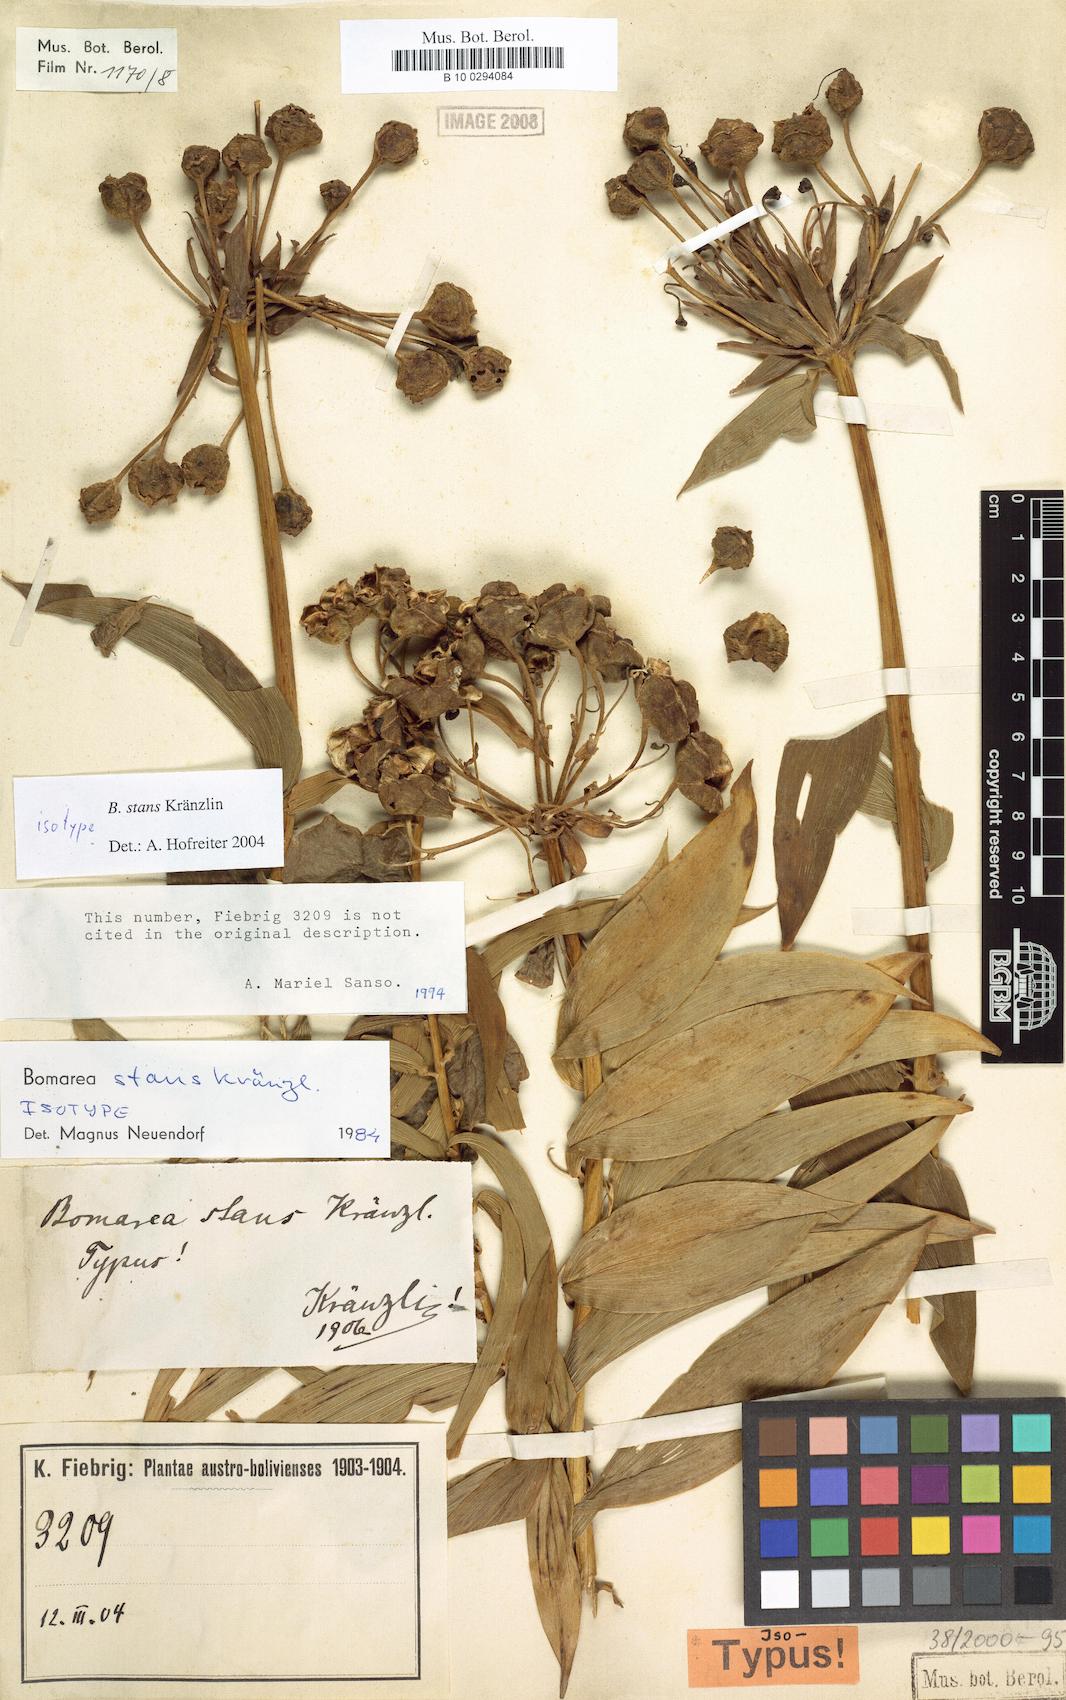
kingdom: Plantae
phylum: Tracheophyta
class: Liliopsida
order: Liliales
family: Alstroemeriaceae
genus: Bomarea
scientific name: Bomarea stans
